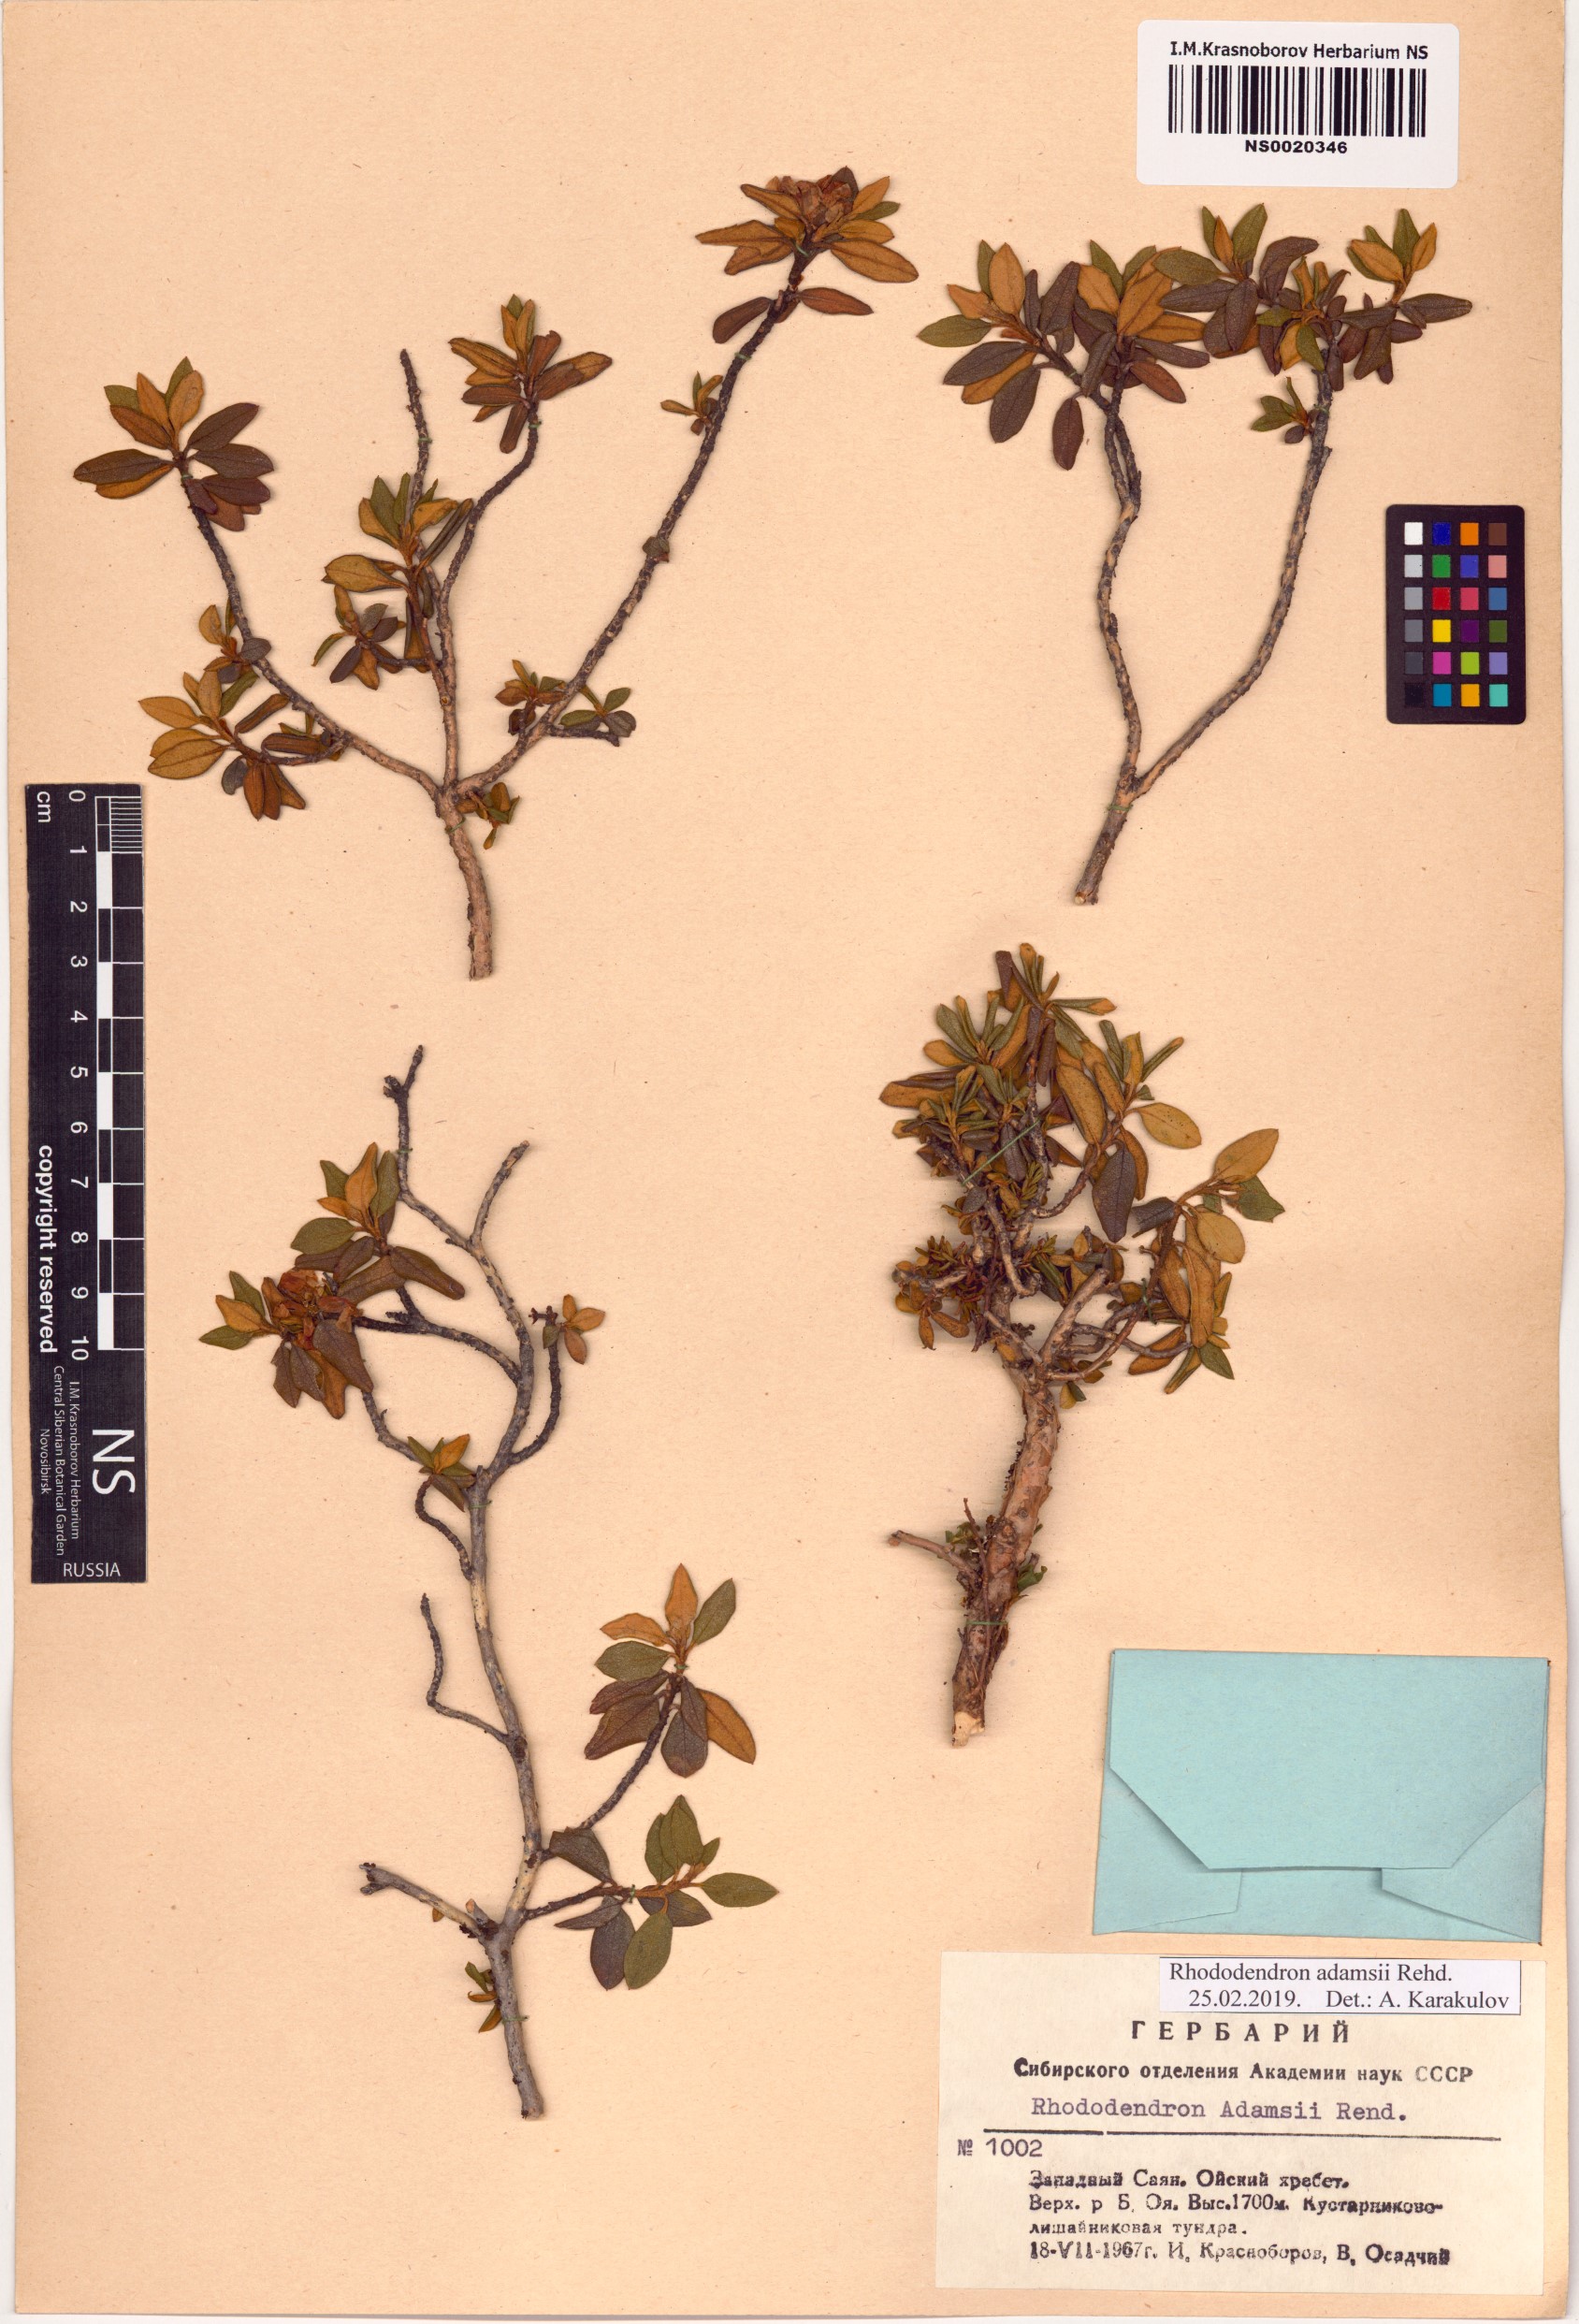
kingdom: Plantae
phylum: Tracheophyta
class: Magnoliopsida
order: Ericales
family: Ericaceae
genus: Rhododendron
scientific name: Rhododendron adamsii
